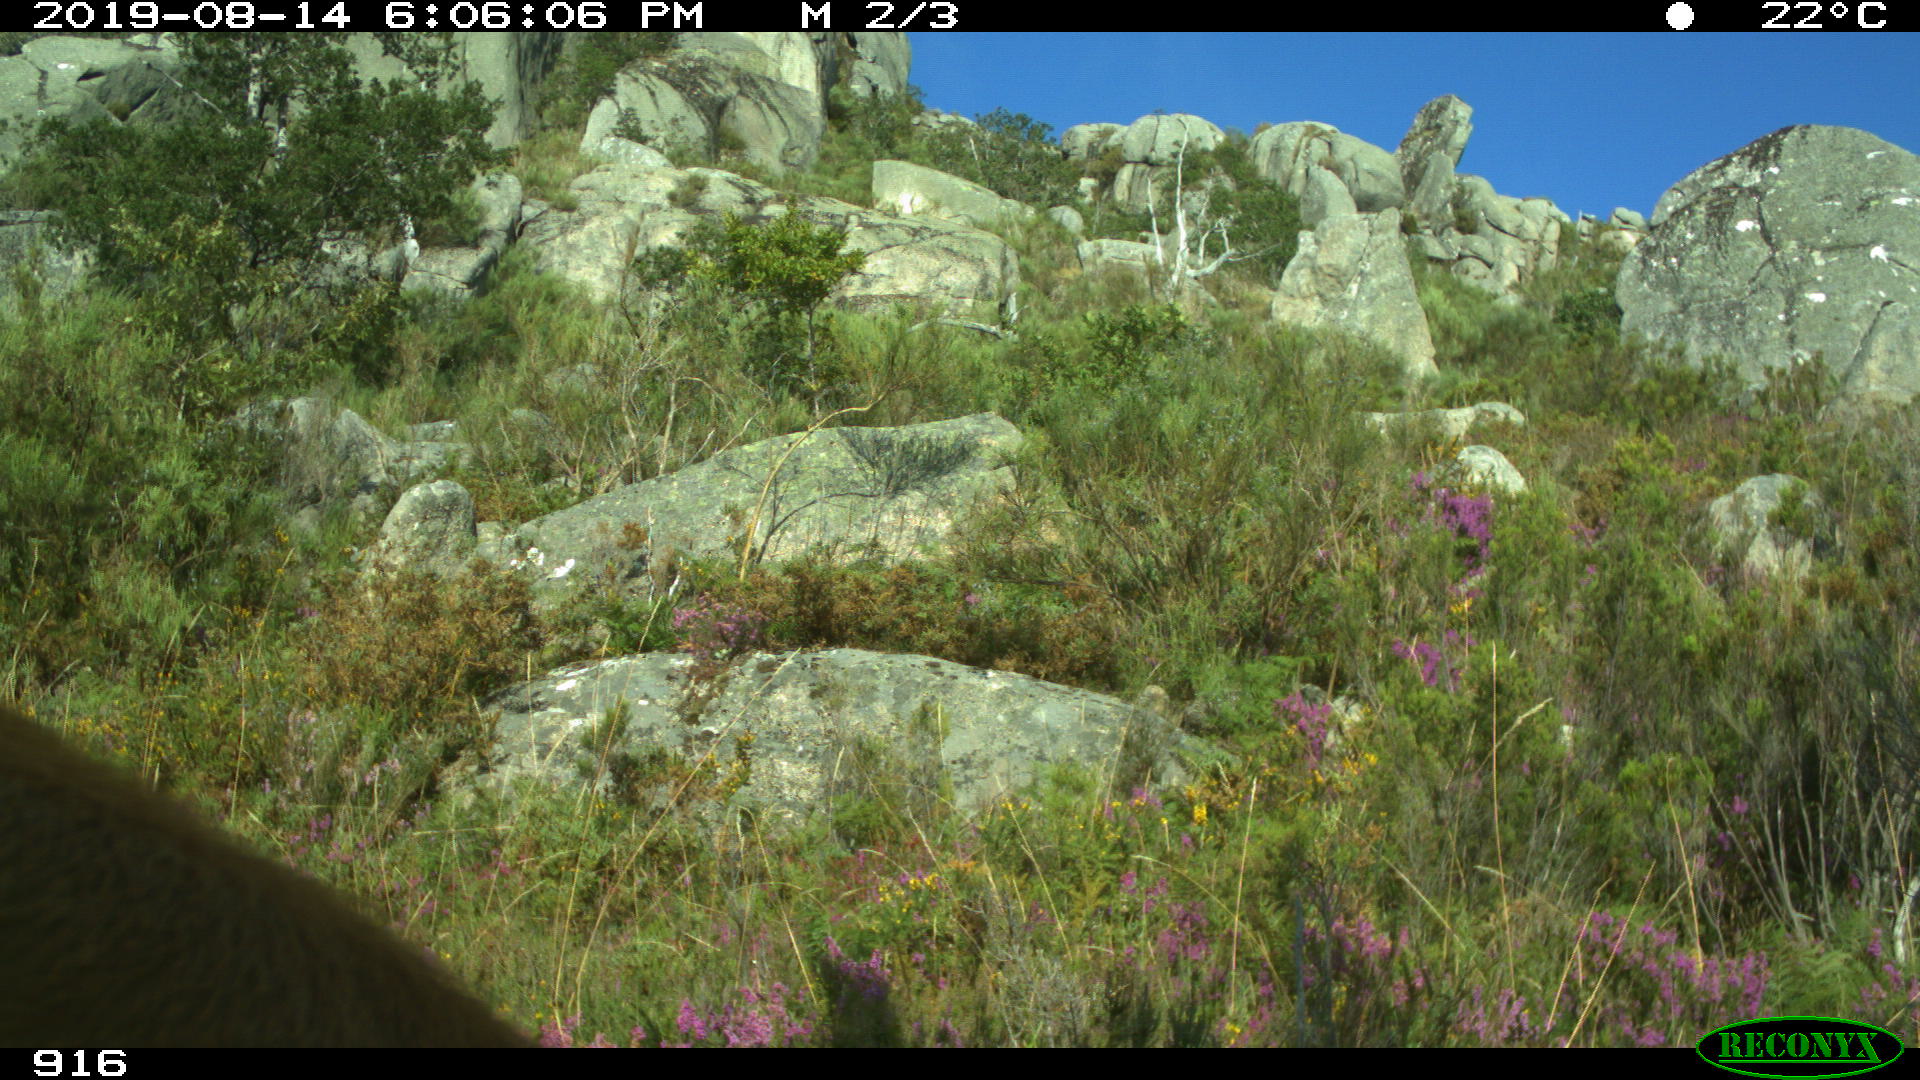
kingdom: Animalia
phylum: Chordata
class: Mammalia
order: Artiodactyla
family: Bovidae
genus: Bos
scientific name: Bos taurus
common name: Domesticated cattle
